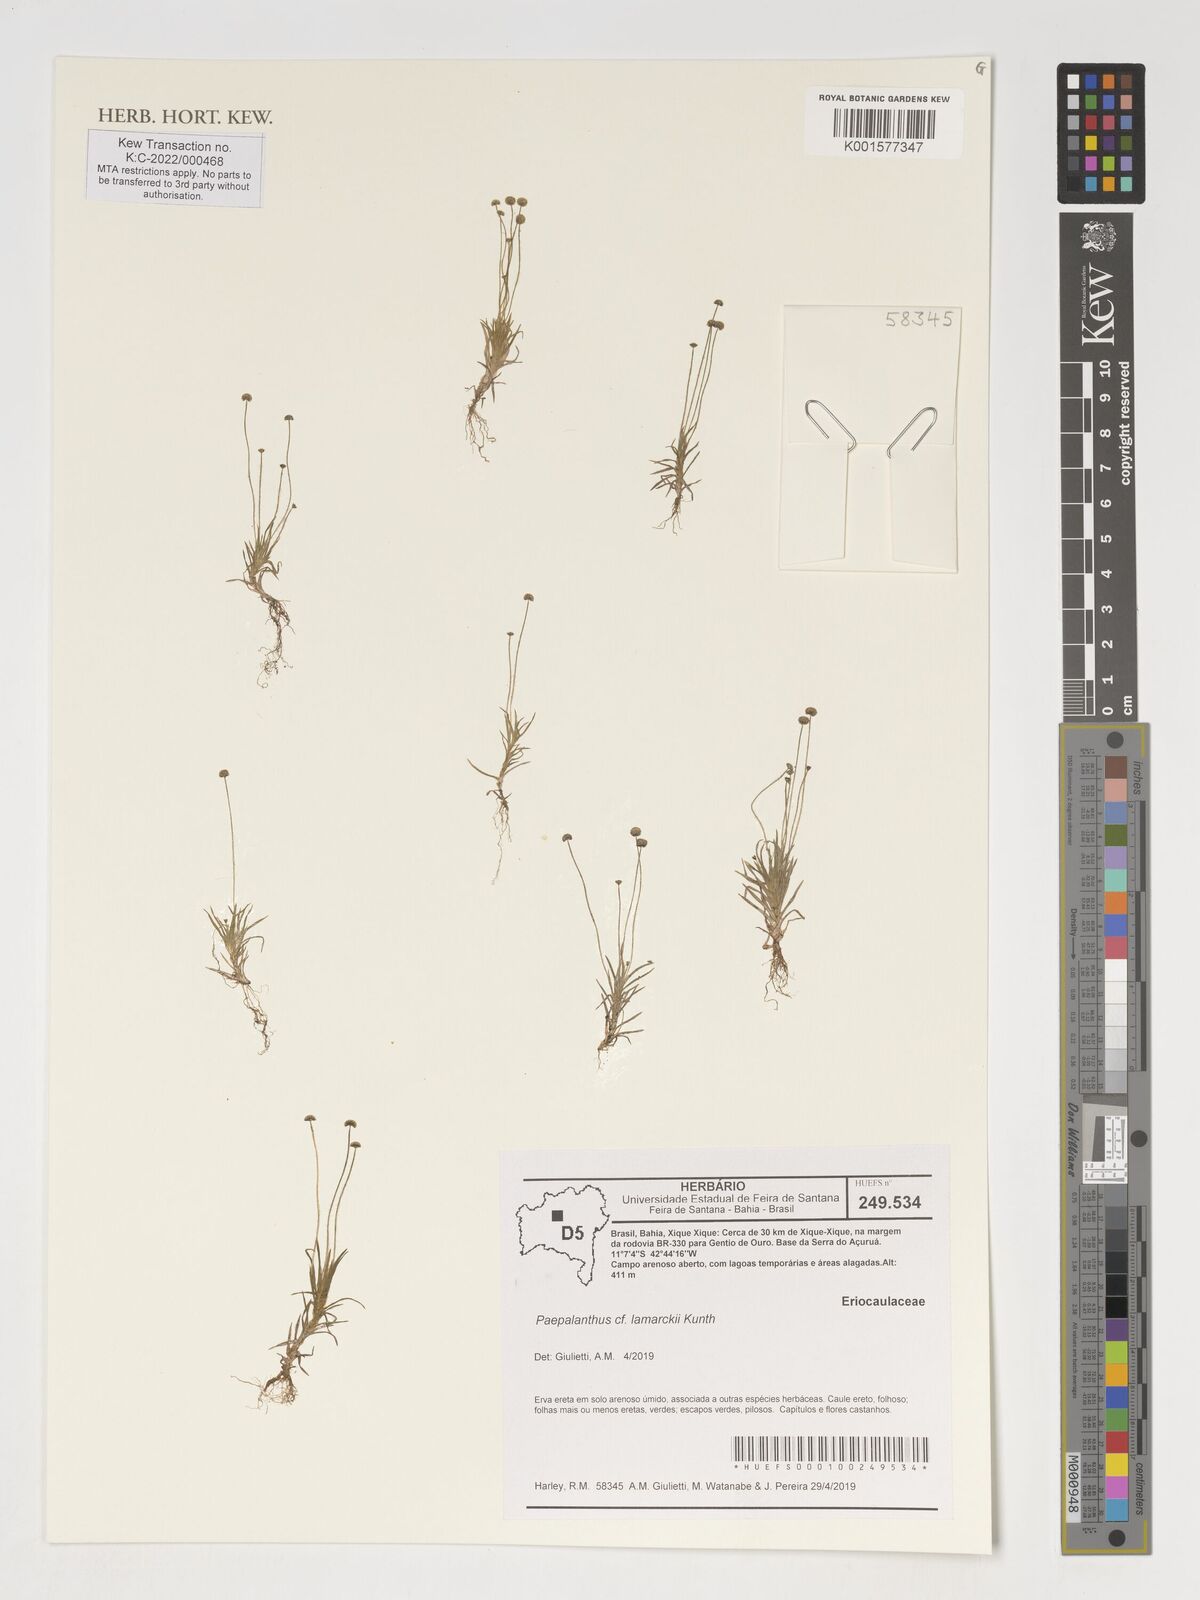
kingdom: Plantae
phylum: Tracheophyta
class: Liliopsida
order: Poales
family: Eriocaulaceae
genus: Paepalanthus
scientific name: Paepalanthus lamarckii
